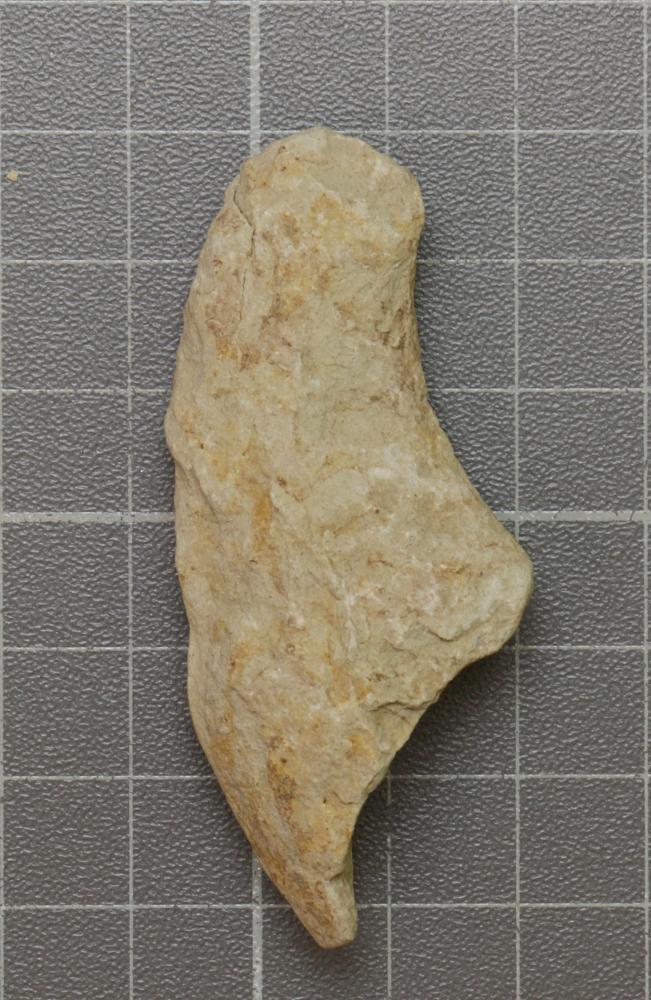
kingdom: Animalia
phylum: Mollusca
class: Cephalopoda
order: Nautilida
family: Nautilidae
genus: Richardsonoceras
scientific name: Richardsonoceras sinuososeptatum
